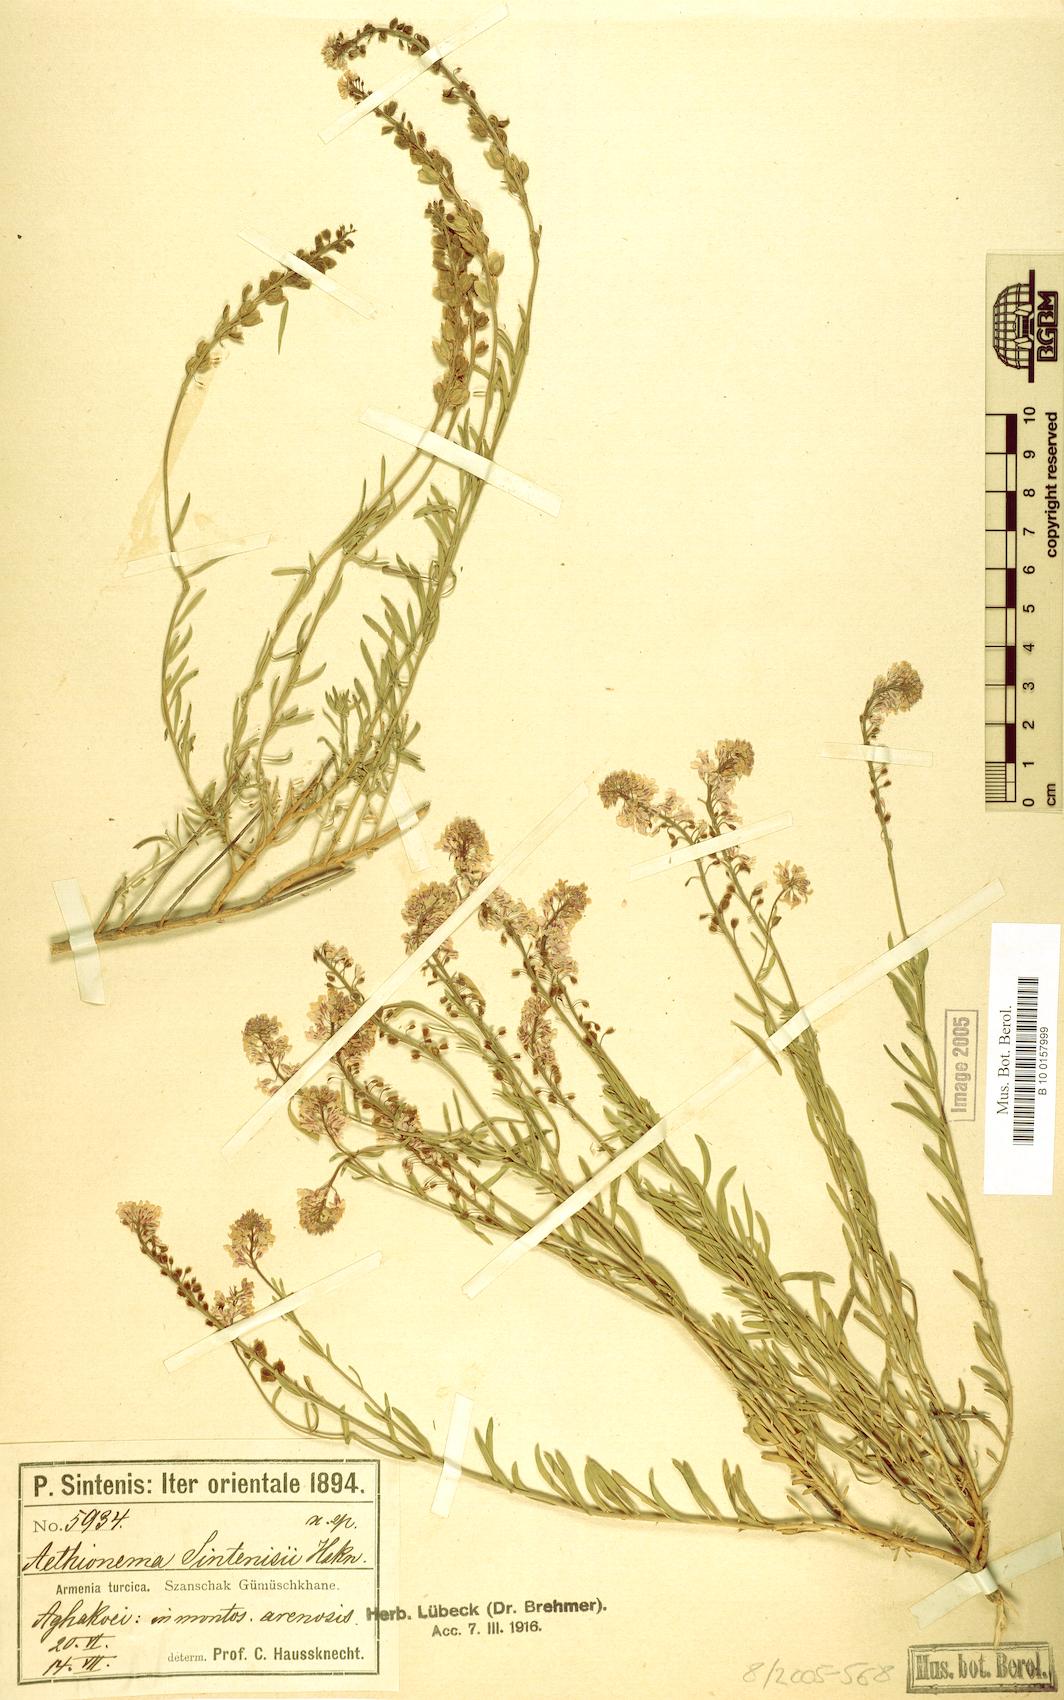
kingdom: Plantae
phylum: Tracheophyta
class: Magnoliopsida
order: Brassicales
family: Brassicaceae
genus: Aethionema
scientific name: Aethionema grandiflorum
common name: Persian stonecress
